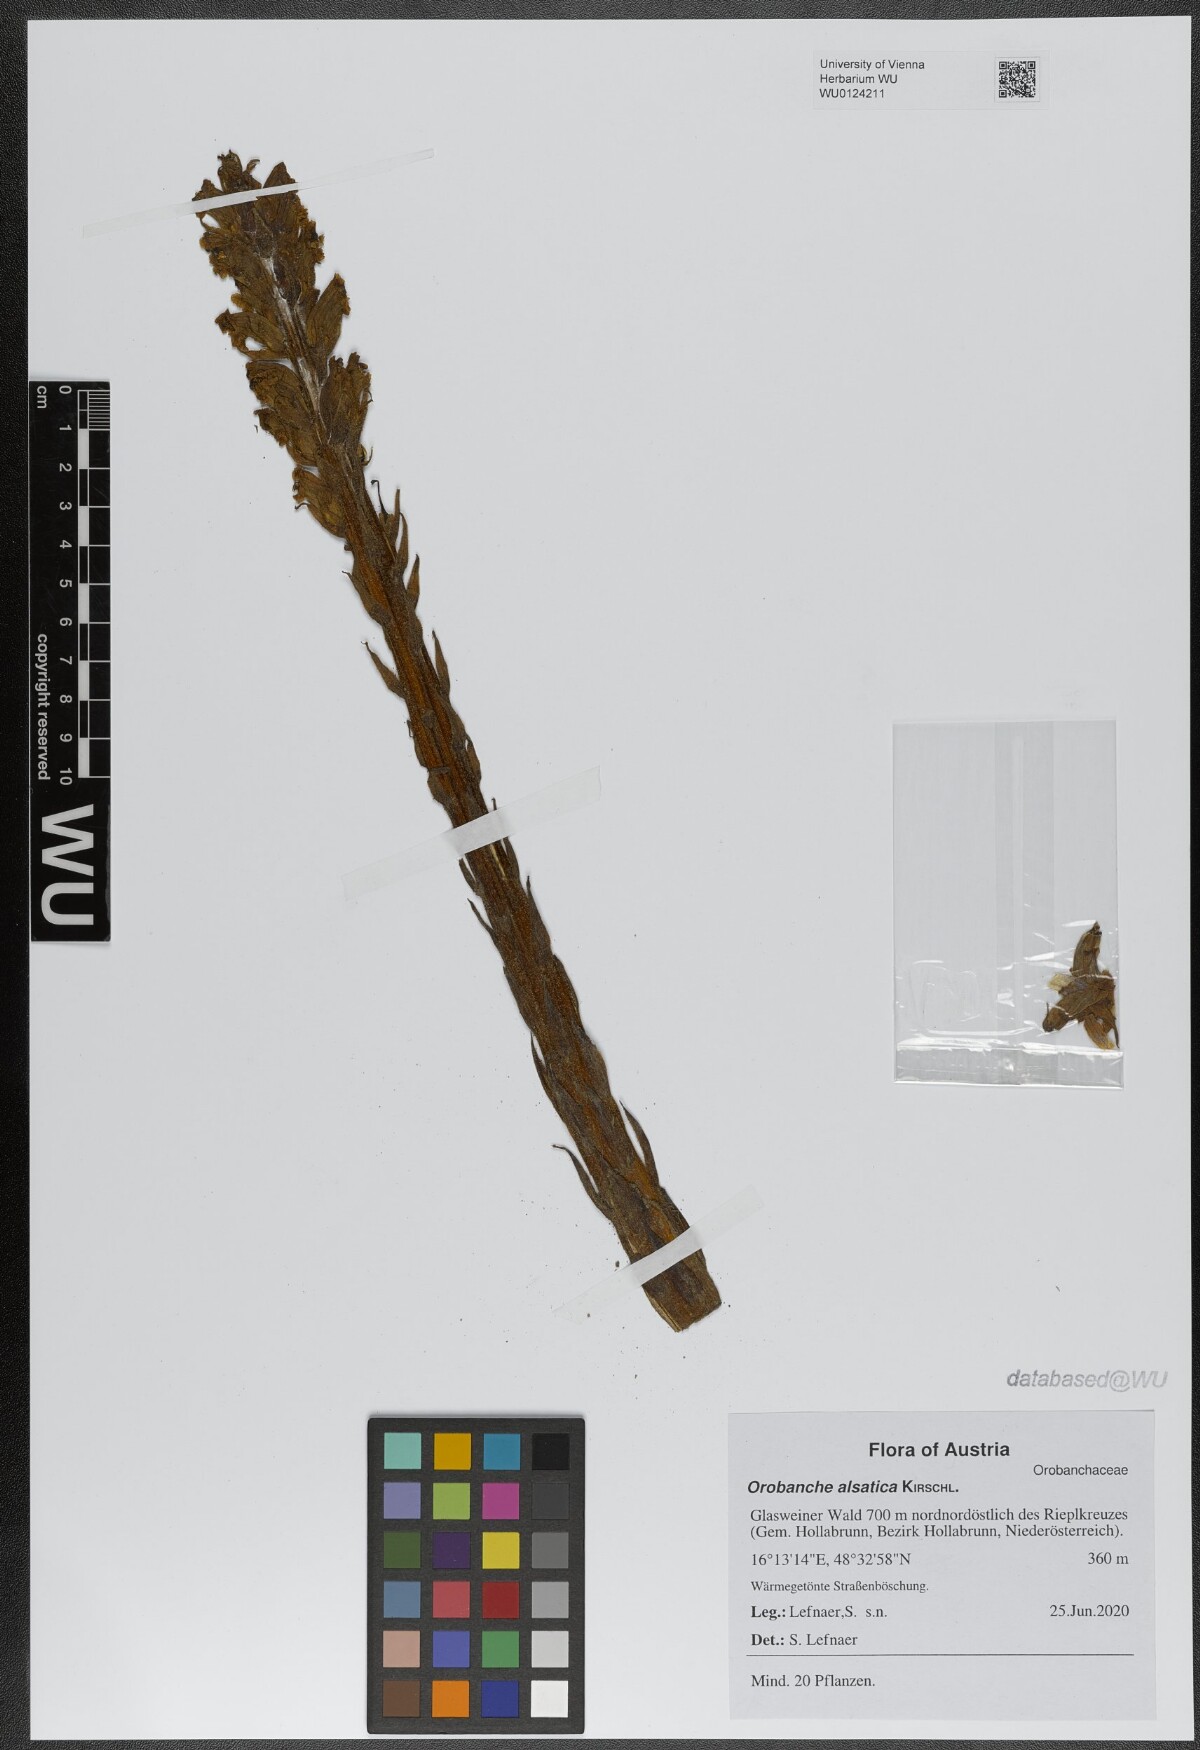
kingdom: Plantae
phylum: Tracheophyta
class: Magnoliopsida
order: Lamiales
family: Orobanchaceae
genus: Orobanche
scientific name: Orobanche alsatica
